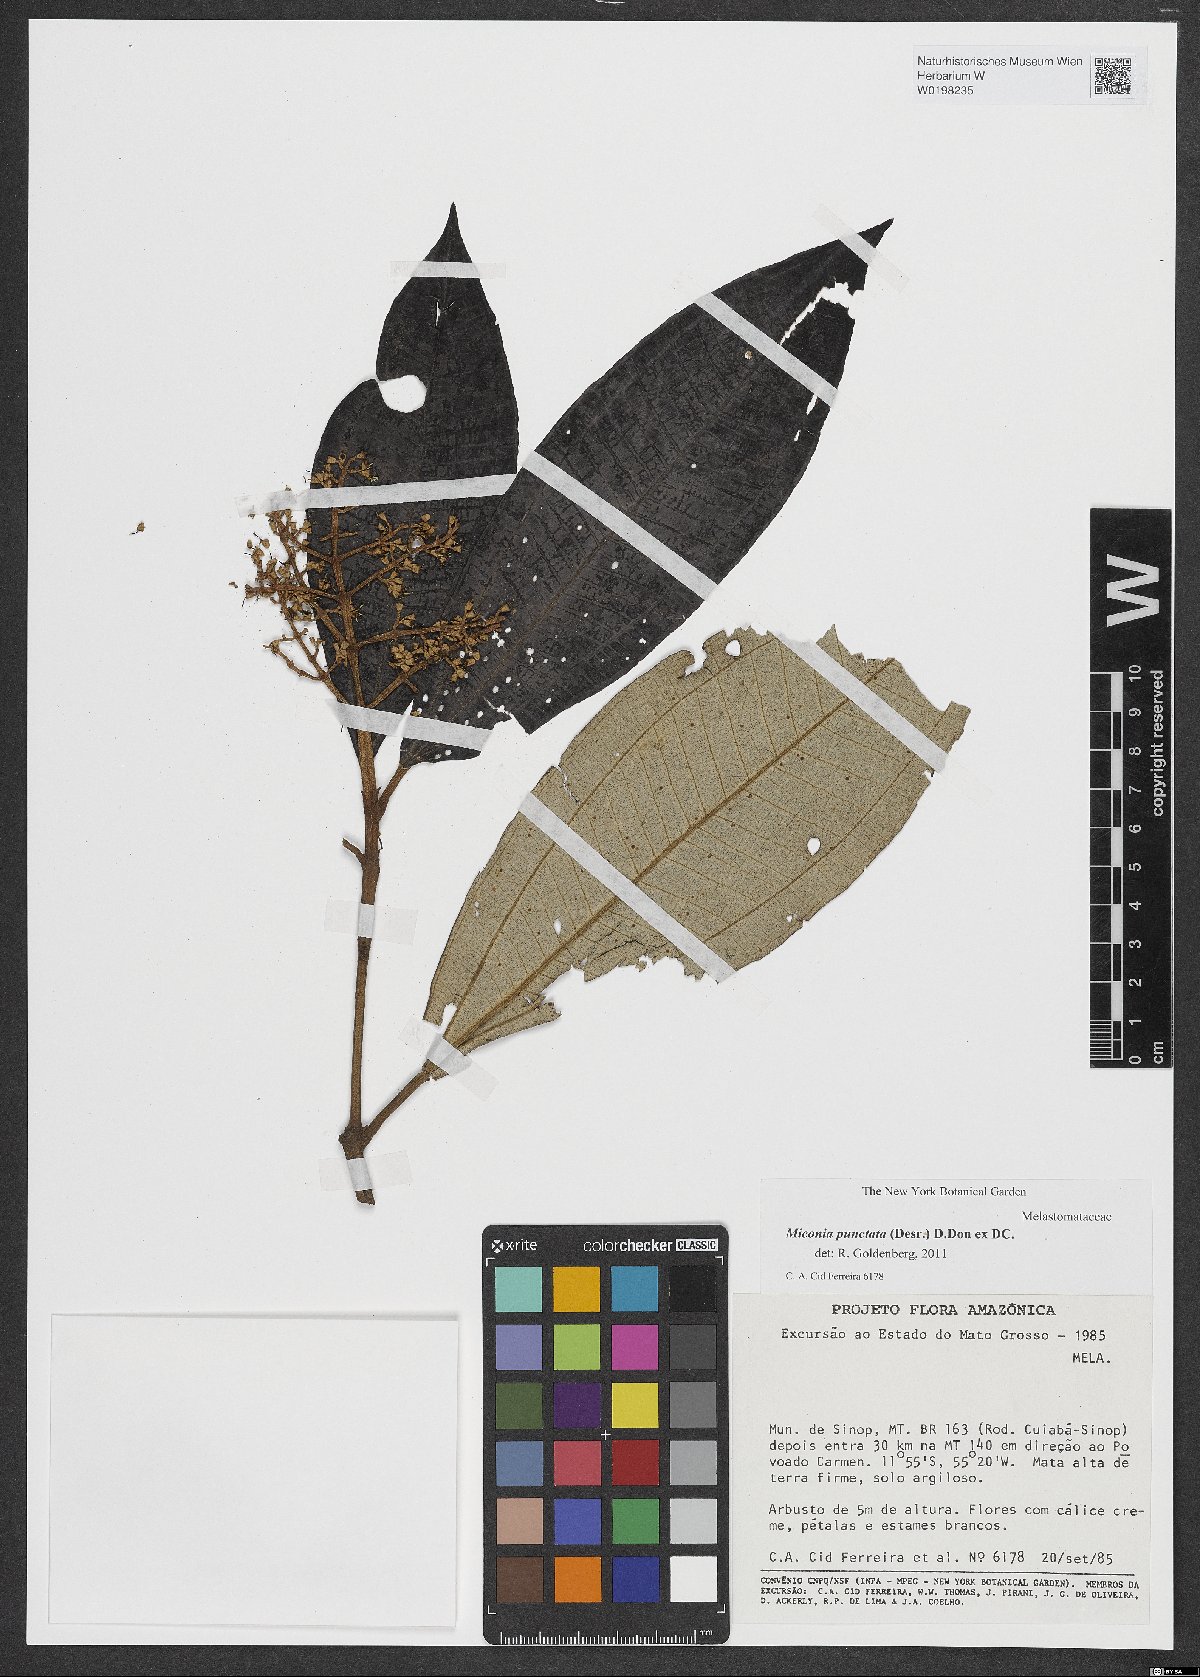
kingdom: Plantae
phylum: Tracheophyta
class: Magnoliopsida
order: Myrtales
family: Melastomataceae
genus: Miconia
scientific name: Miconia punctata
